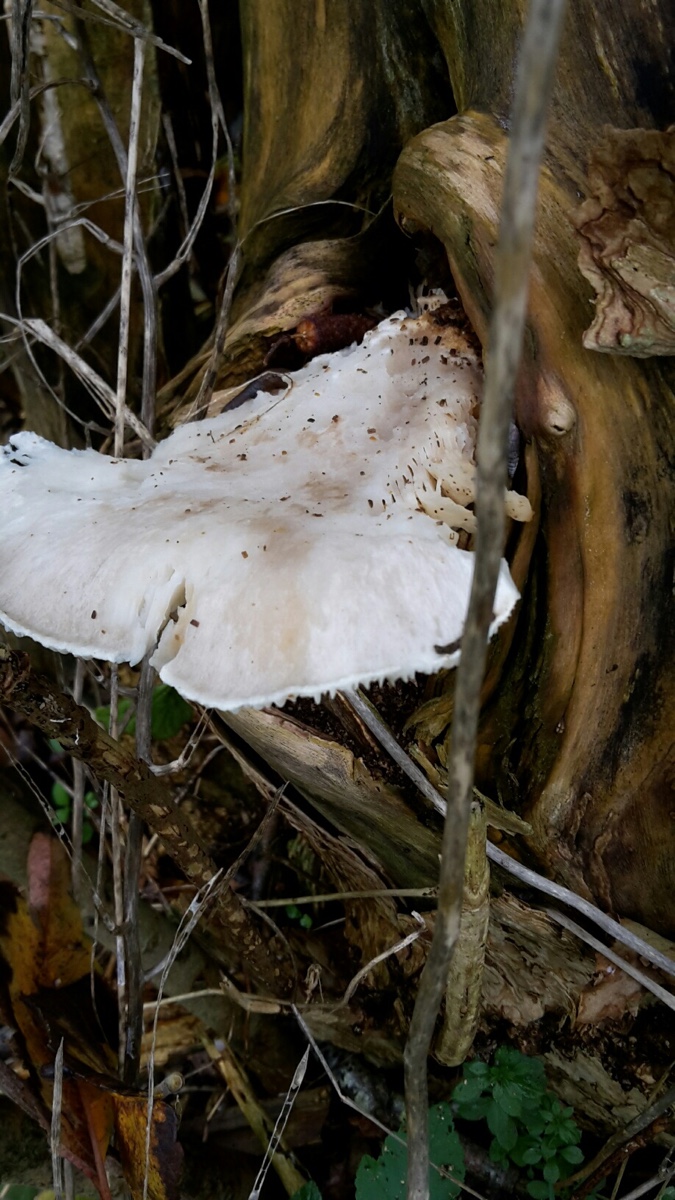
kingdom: Fungi
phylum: Basidiomycota
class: Agaricomycetes
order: Agaricales
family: Pleurotaceae
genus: Pleurotus
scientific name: Pleurotus dryinus
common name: korkagtig østershat
